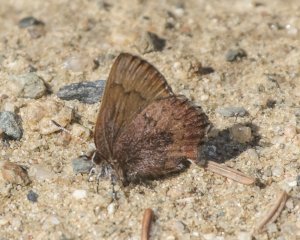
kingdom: Animalia
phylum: Arthropoda
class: Insecta
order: Lepidoptera
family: Lycaenidae
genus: Incisalia
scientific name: Incisalia irioides
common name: Brown Elfin
